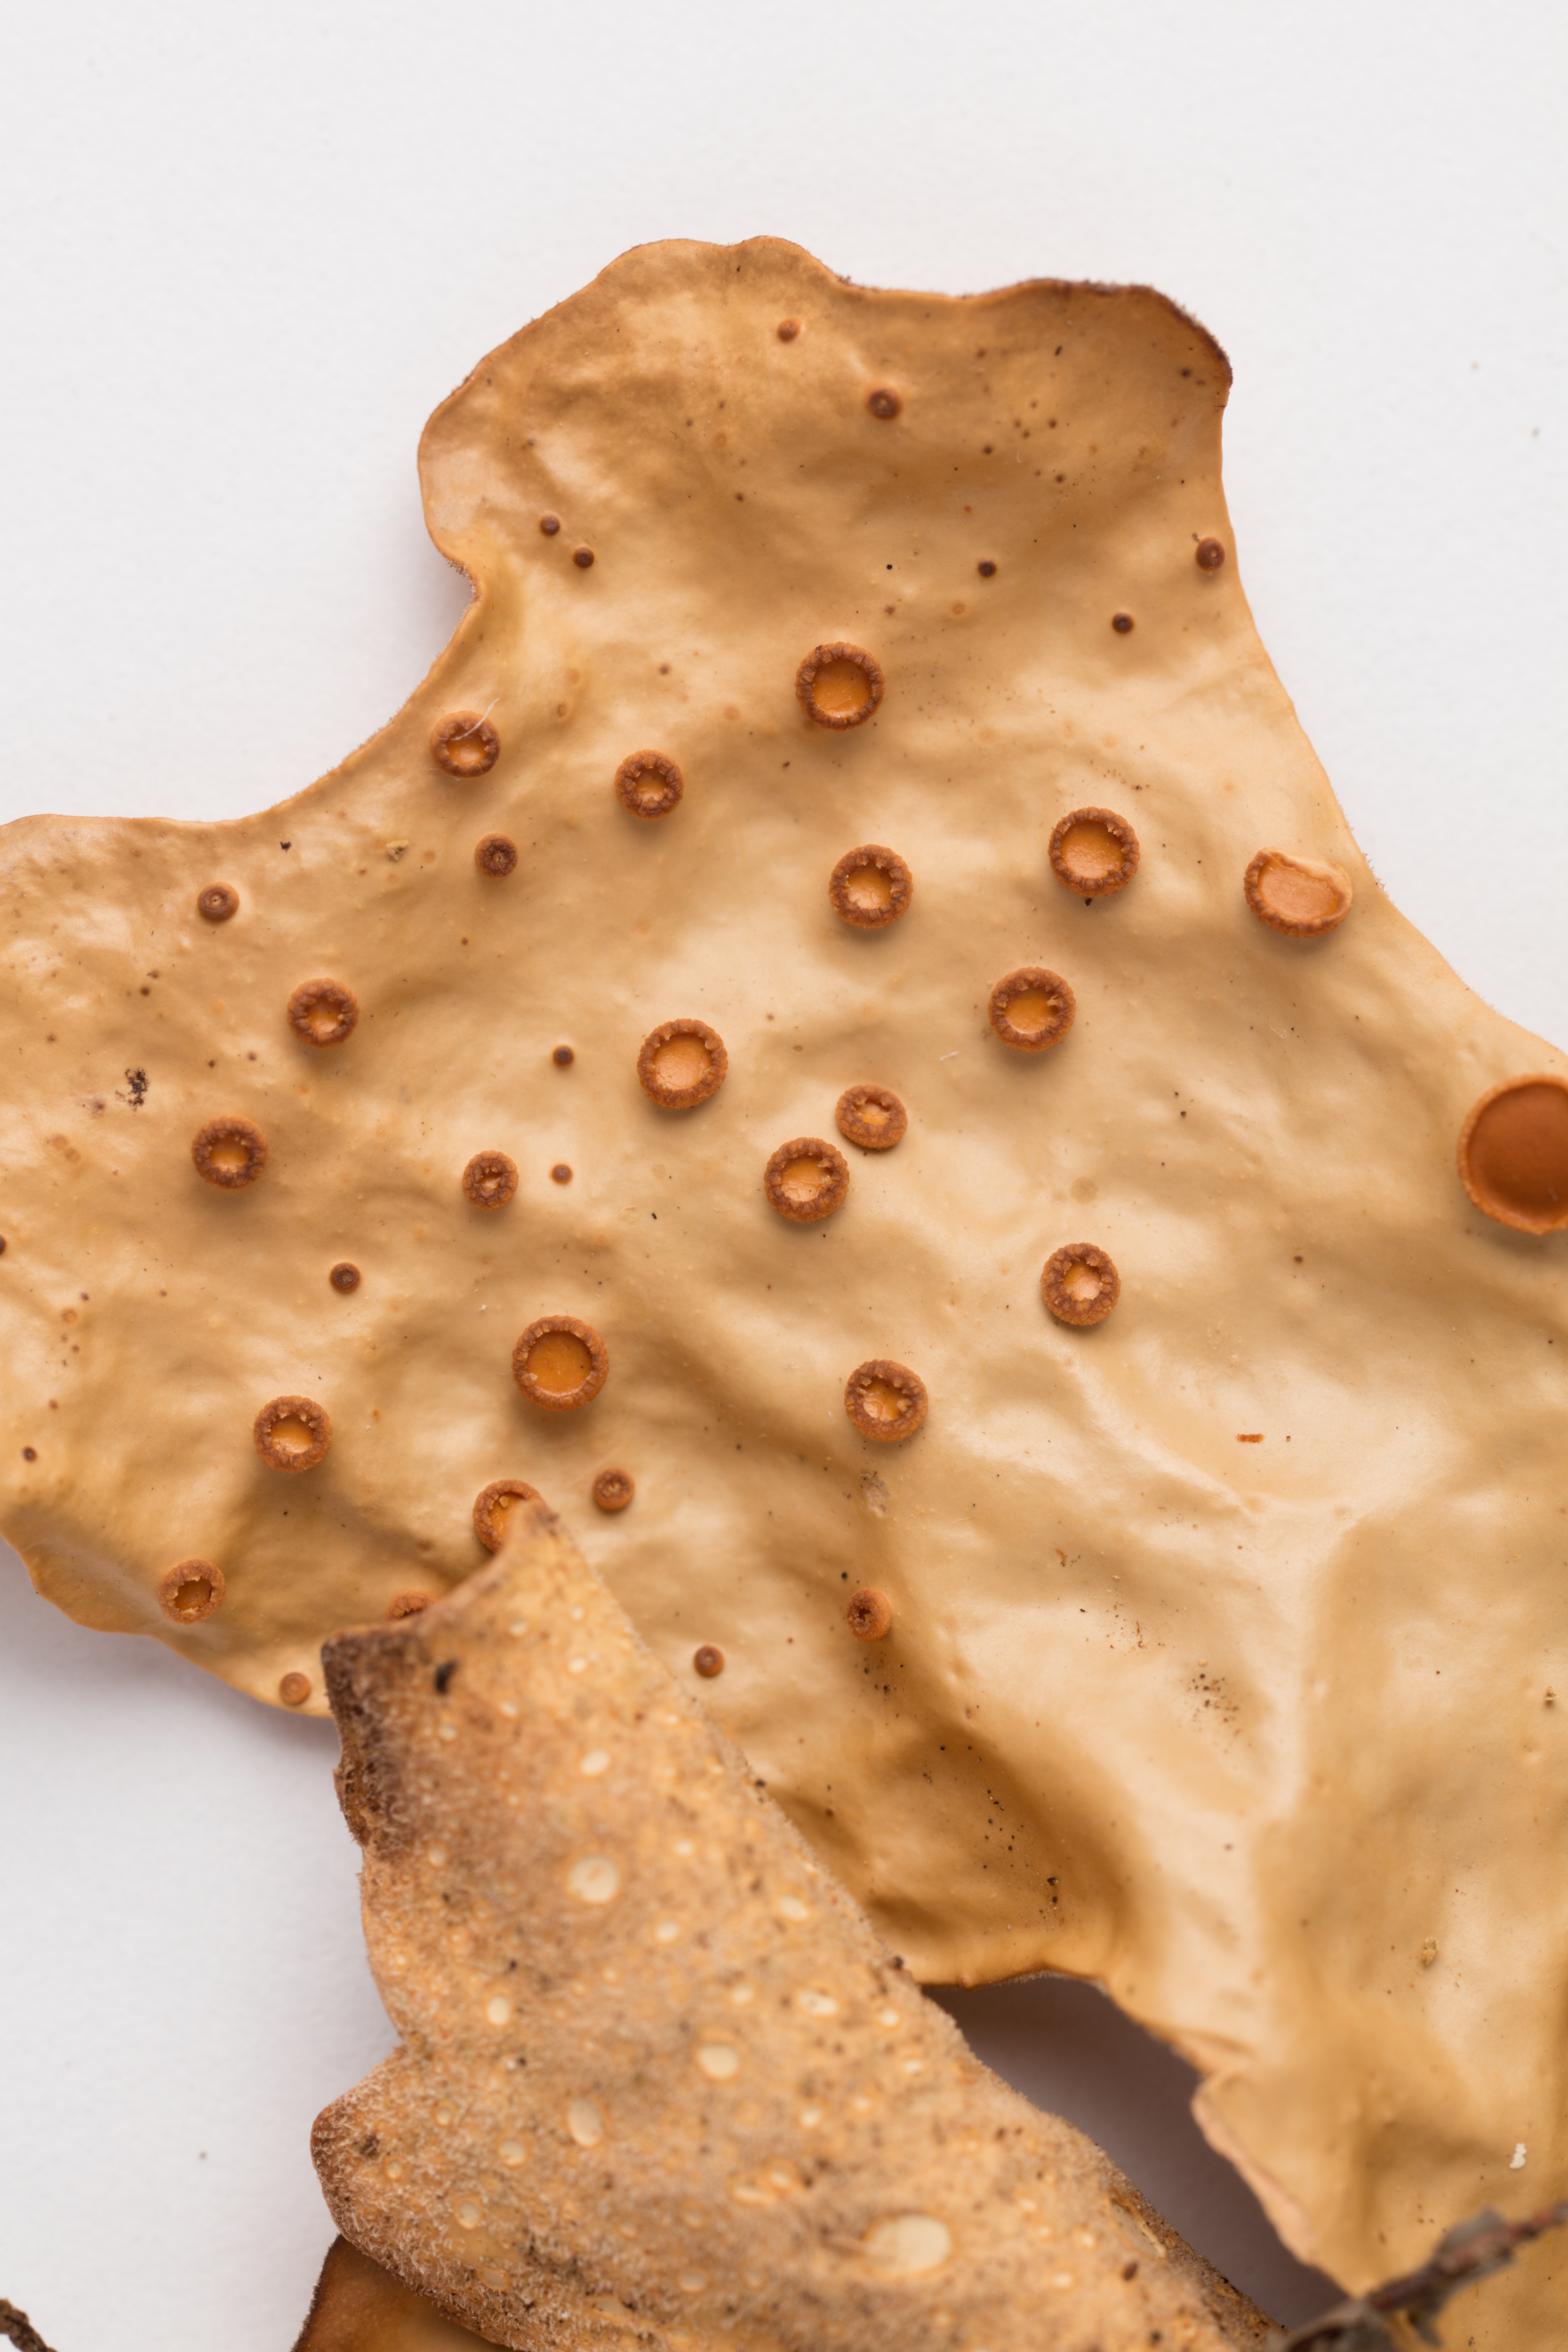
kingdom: Fungi
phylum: Ascomycota
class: Lecanoromycetes
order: Peltigerales
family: Lobariaceae
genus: Sticta
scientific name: Sticta latifrons
